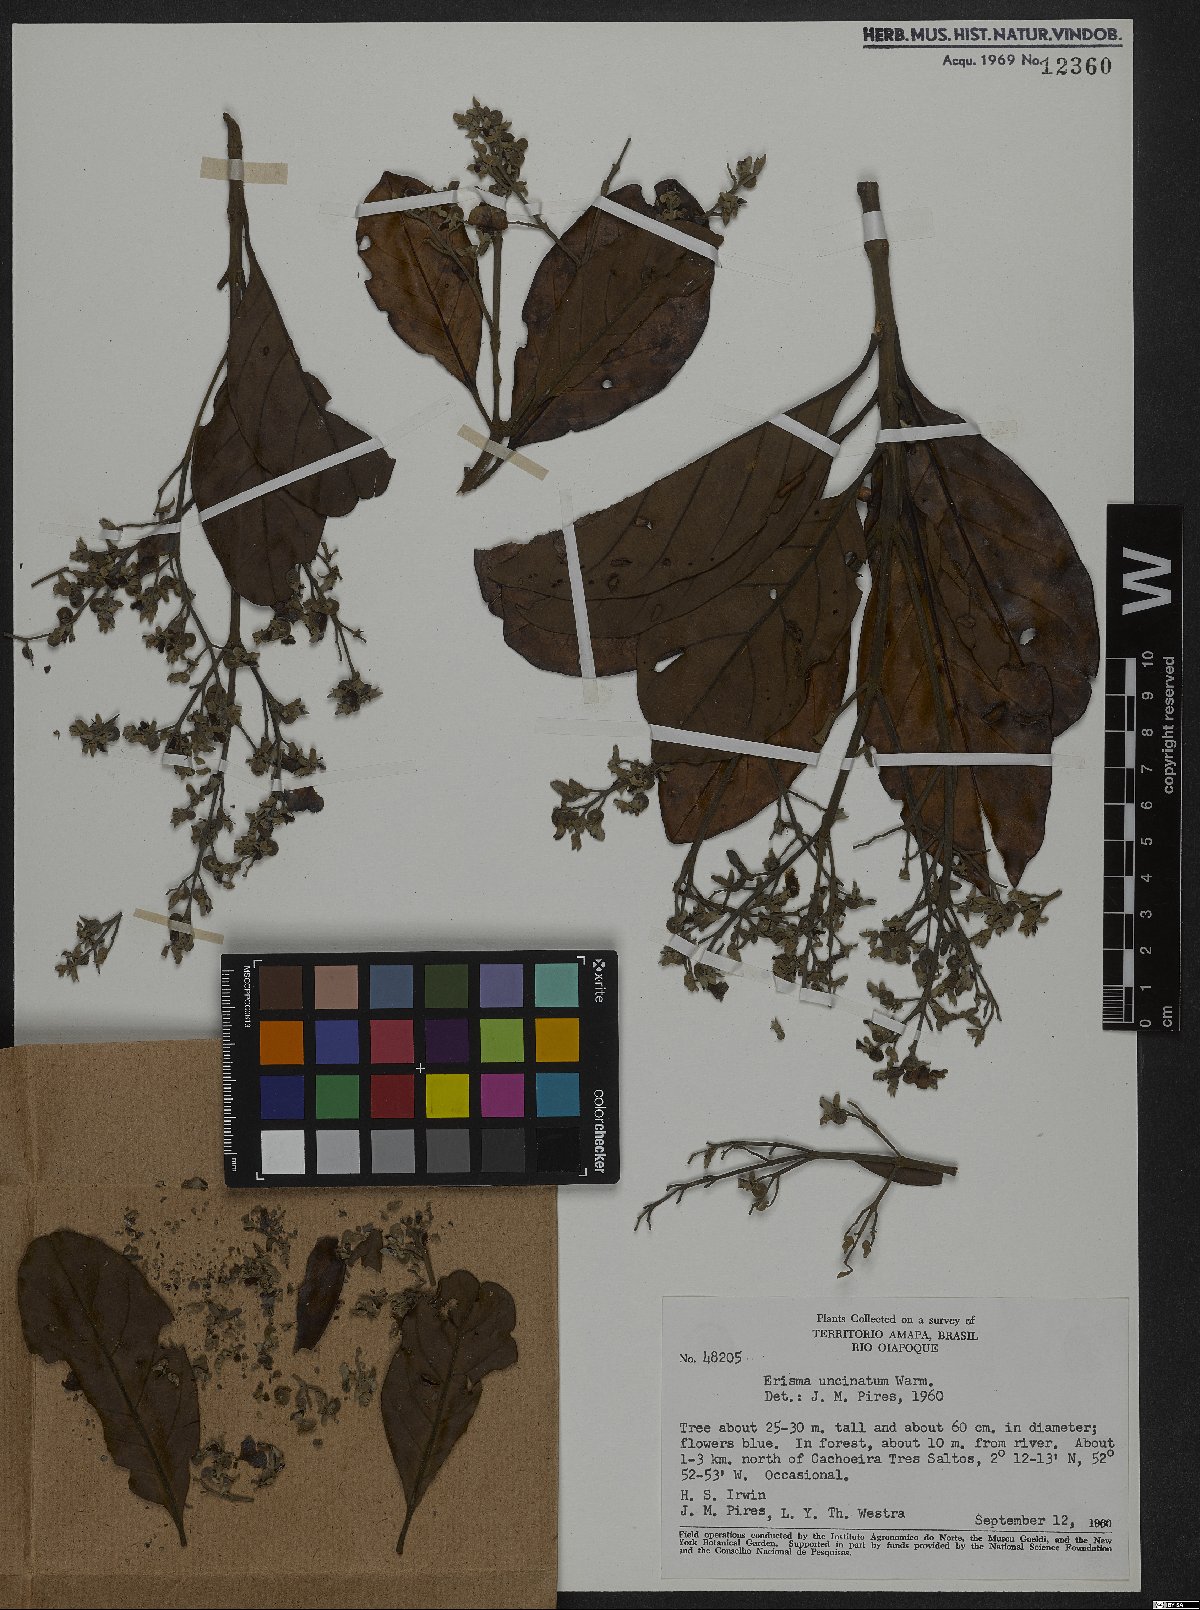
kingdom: Plantae
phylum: Tracheophyta
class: Magnoliopsida
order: Myrtales
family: Vochysiaceae
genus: Erisma
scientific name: Erisma uncinatum
